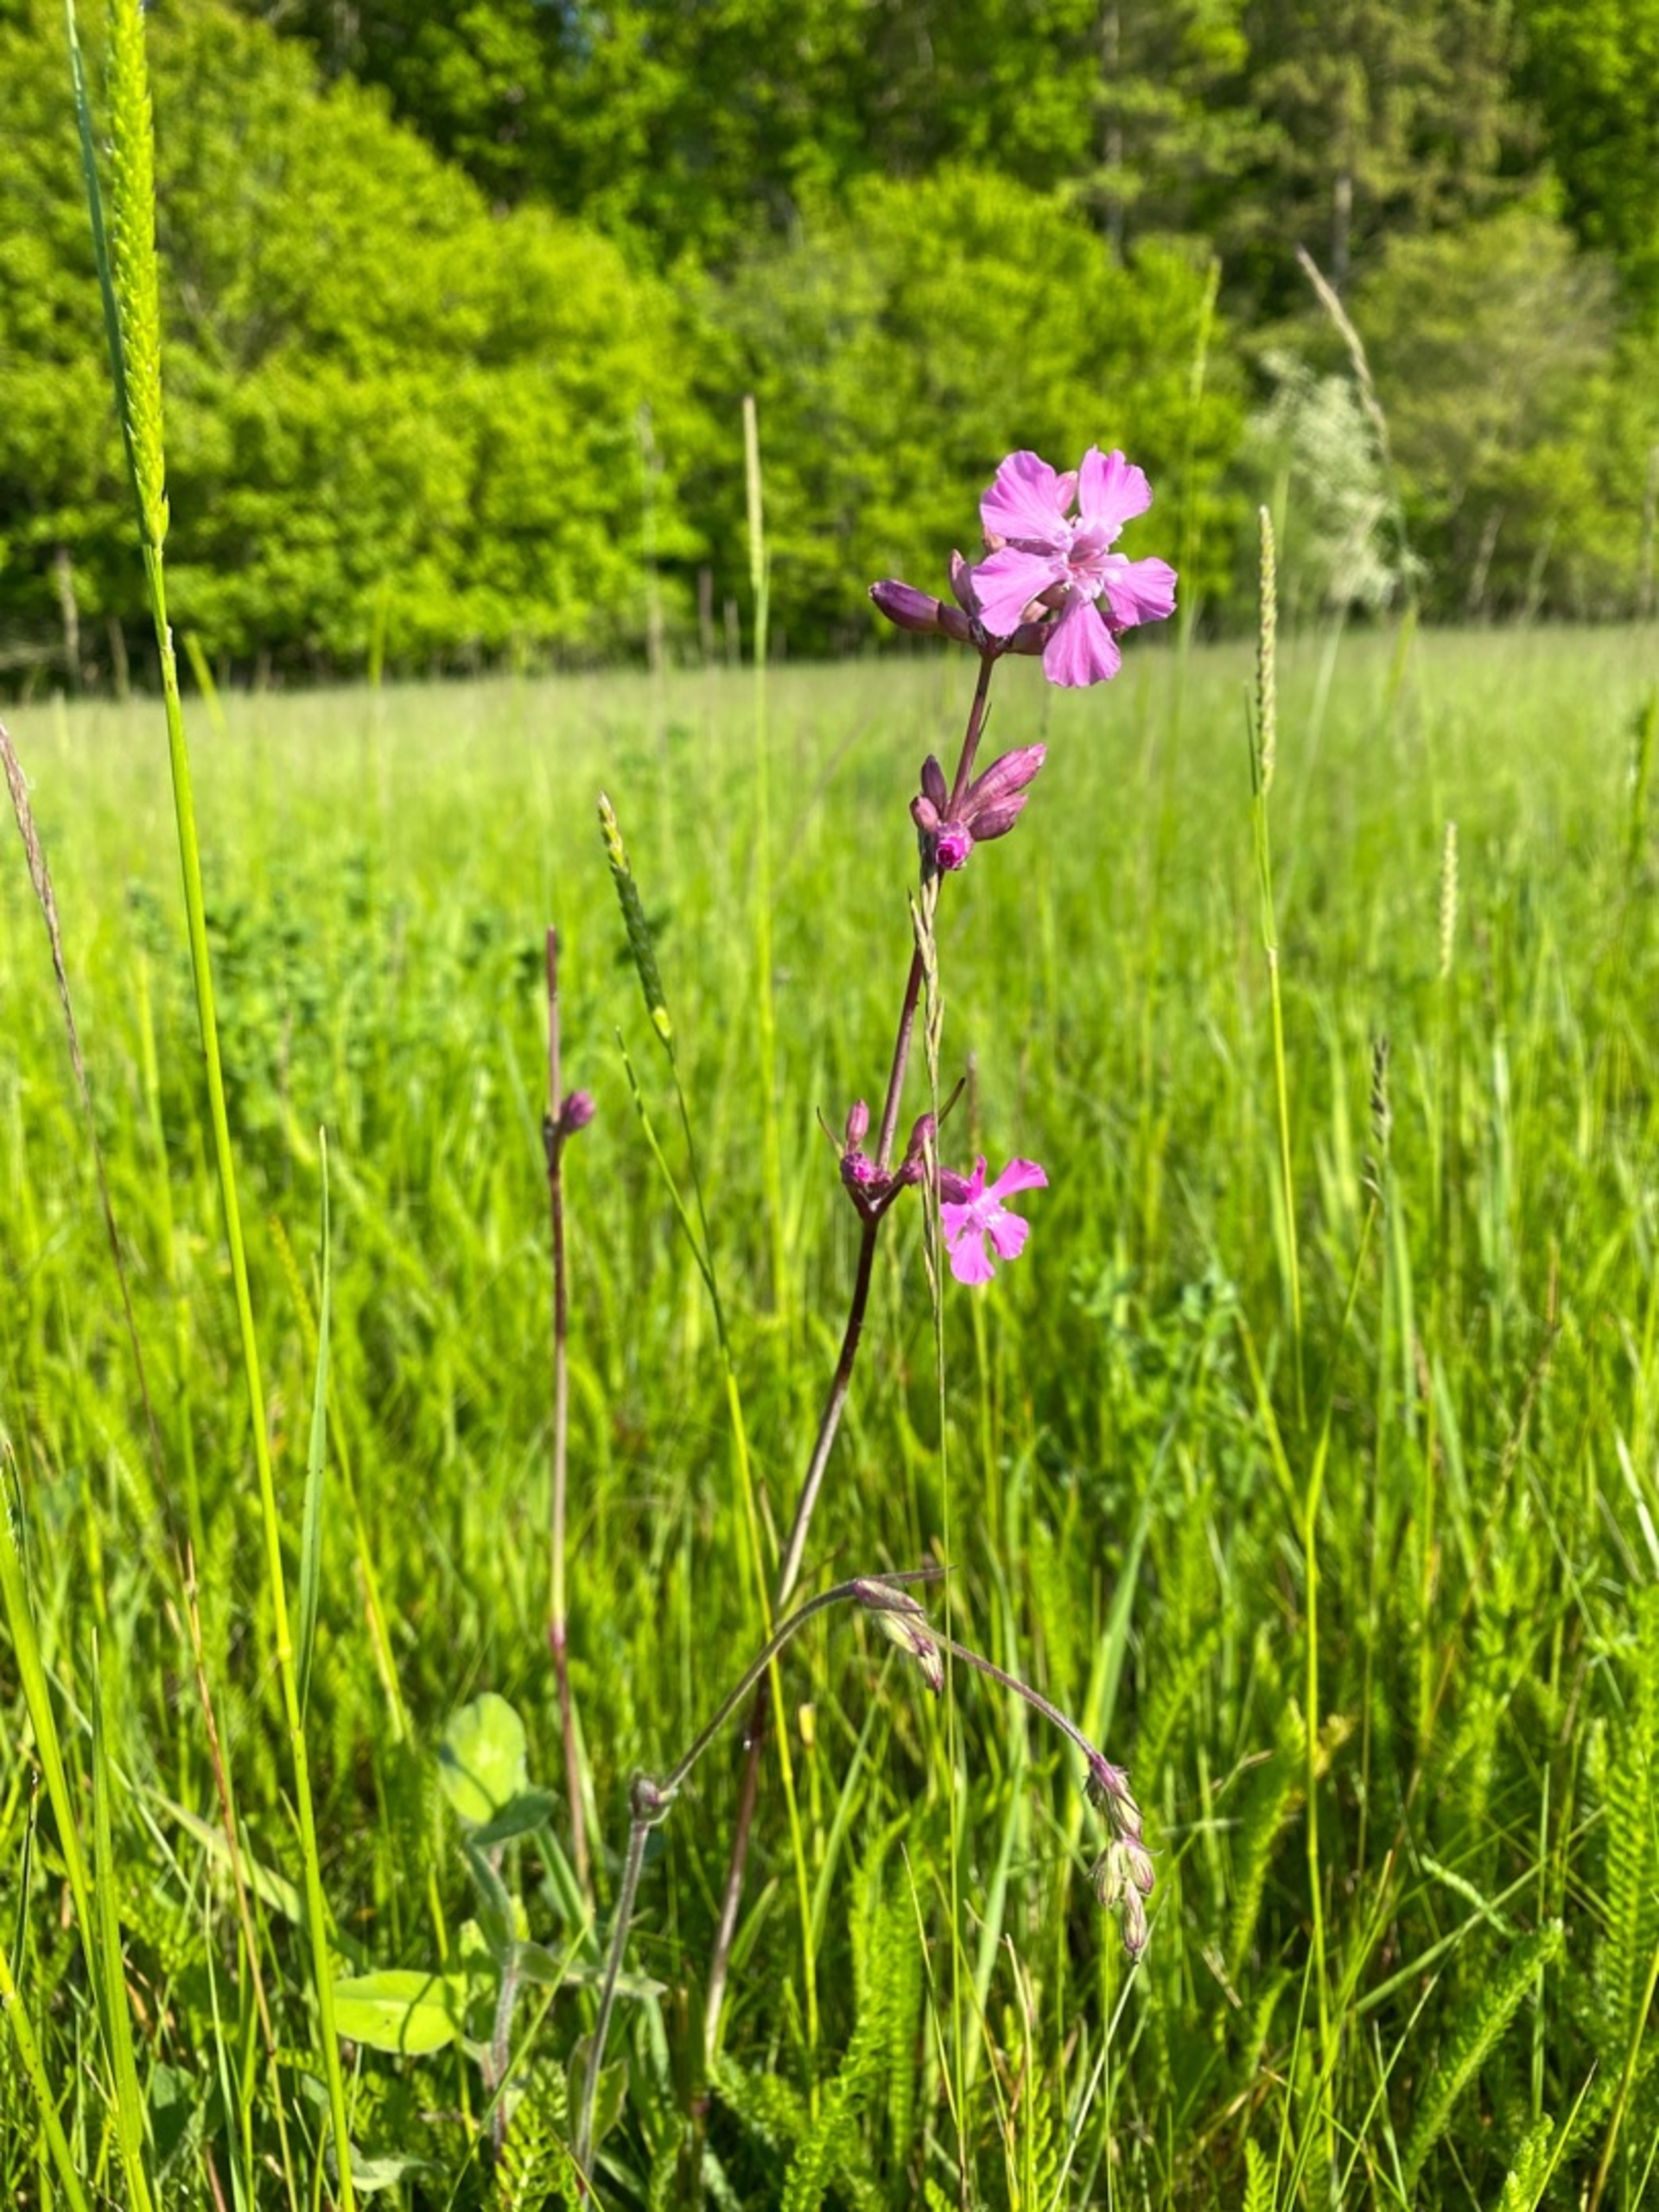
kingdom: Plantae
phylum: Tracheophyta
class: Magnoliopsida
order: Caryophyllales
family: Caryophyllaceae
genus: Viscaria
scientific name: Viscaria vulgaris
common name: Tjærenellike
